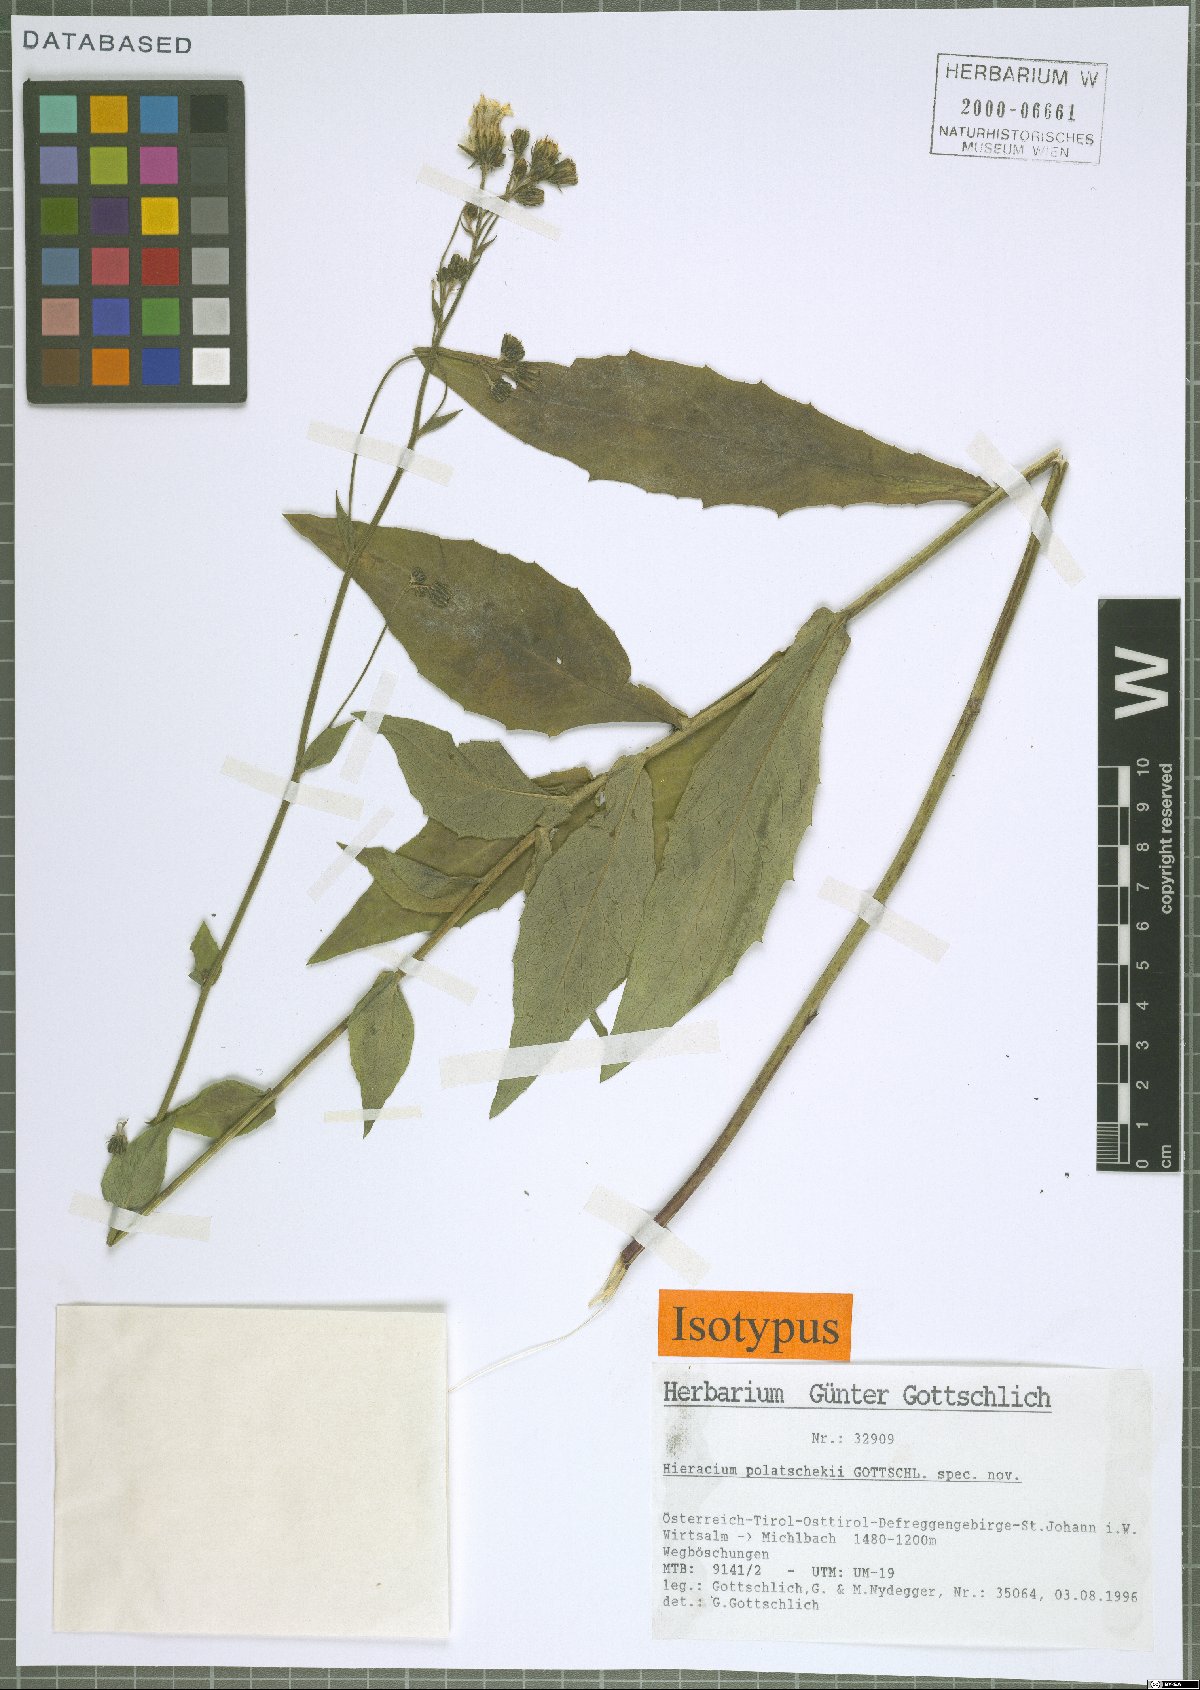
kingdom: Plantae
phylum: Tracheophyta
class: Magnoliopsida
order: Asterales
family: Asteraceae
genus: Hieracium
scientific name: Hieracium polatschekii
